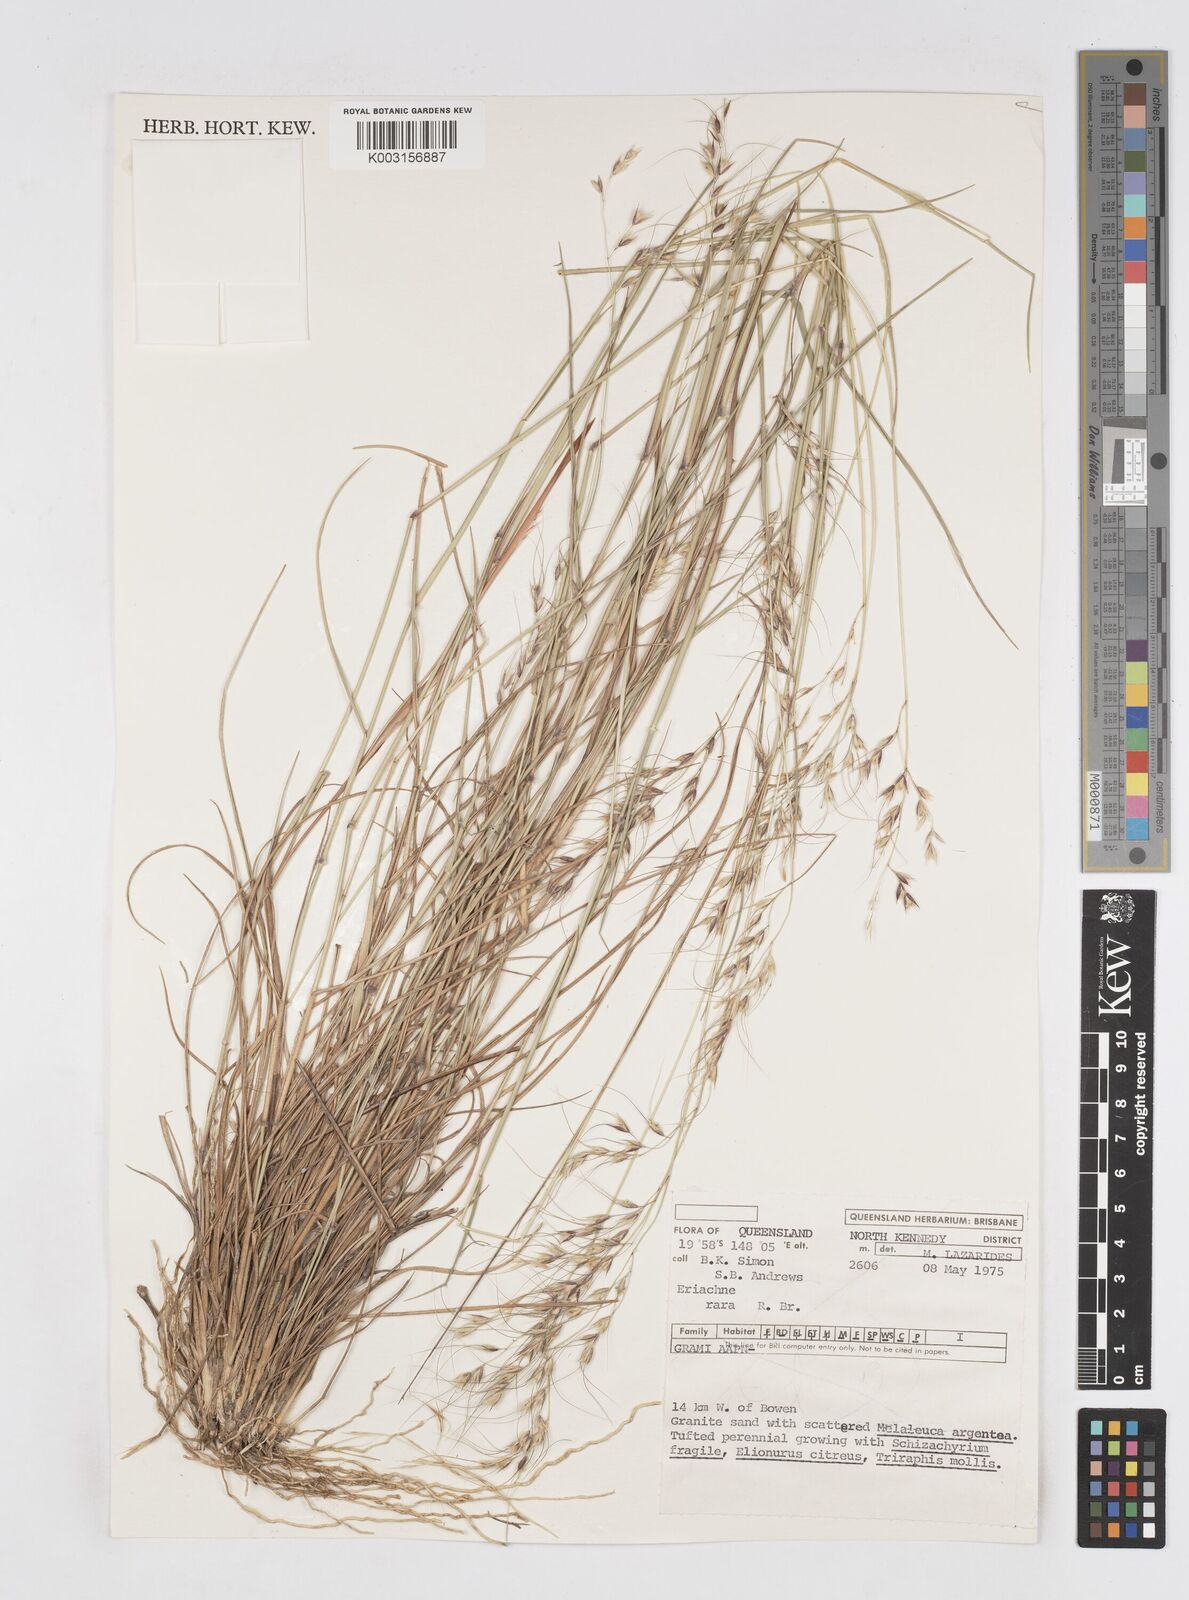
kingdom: Plantae
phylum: Tracheophyta
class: Liliopsida
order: Poales
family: Poaceae
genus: Eriachne
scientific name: Eriachne rara
